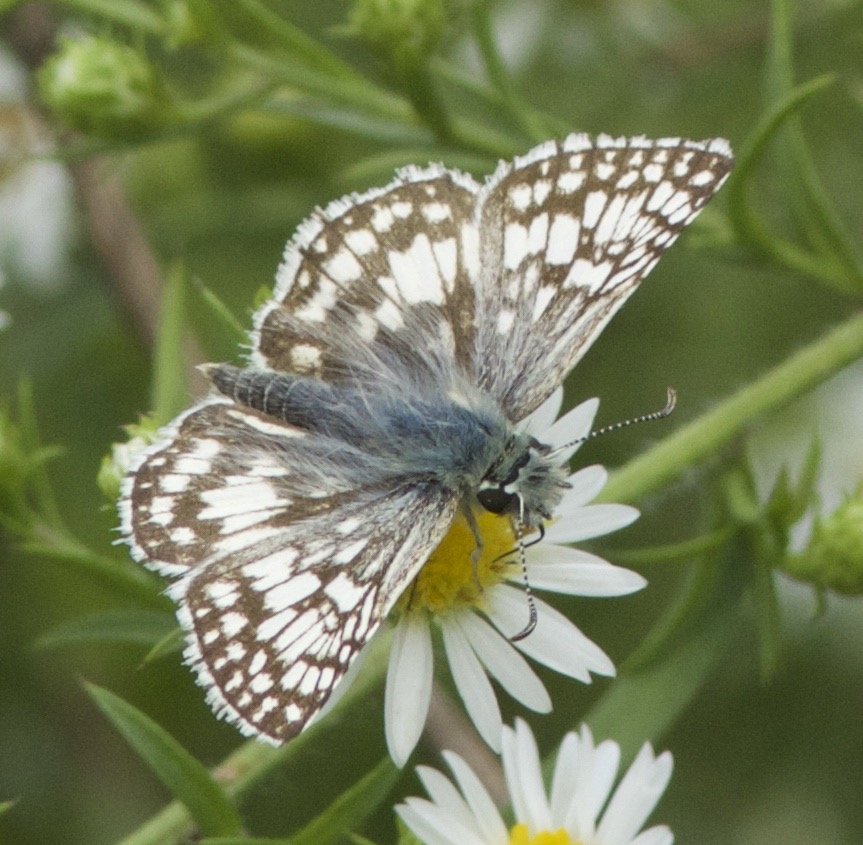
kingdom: Animalia
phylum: Arthropoda
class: Insecta
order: Lepidoptera
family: Hesperiidae
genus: Pyrgus
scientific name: Pyrgus communis
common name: Common Checkered-Skipper
